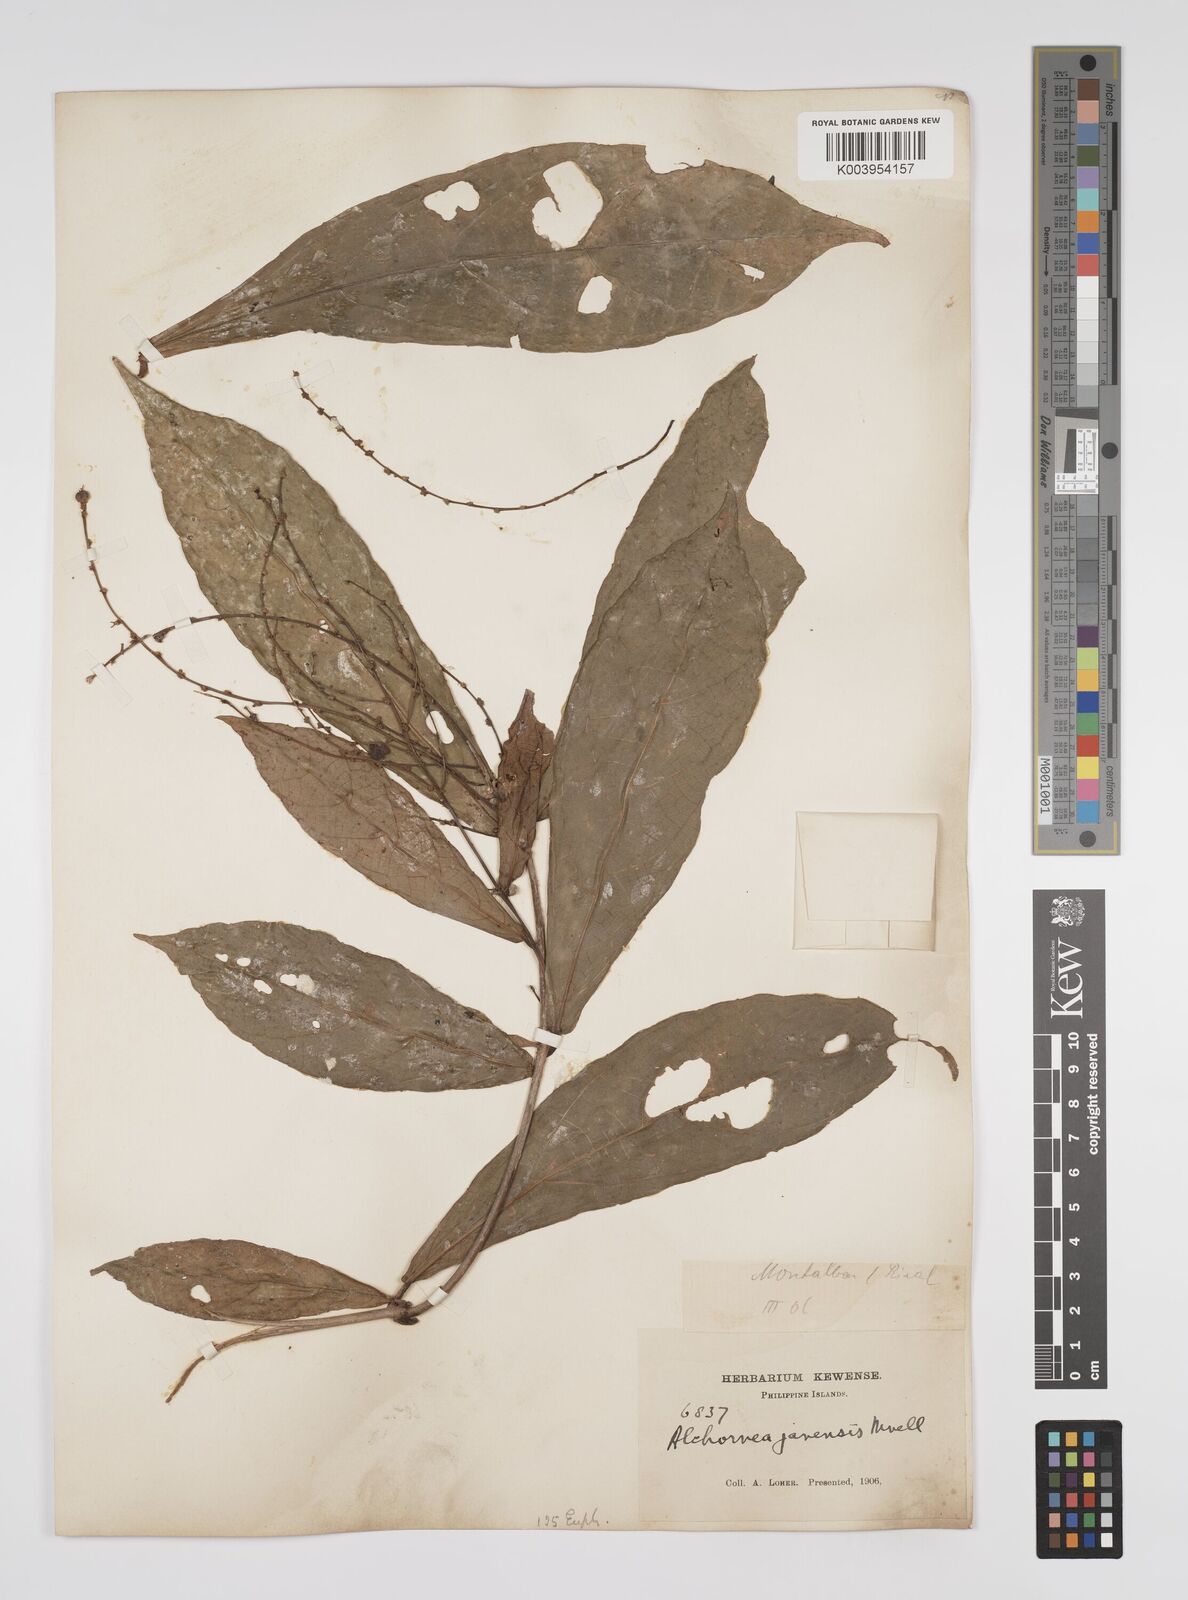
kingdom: Plantae
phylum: Tracheophyta
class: Magnoliopsida
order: Malpighiales
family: Euphorbiaceae
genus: Alchornea
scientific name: Alchornea rugosa
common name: Alchorntree
